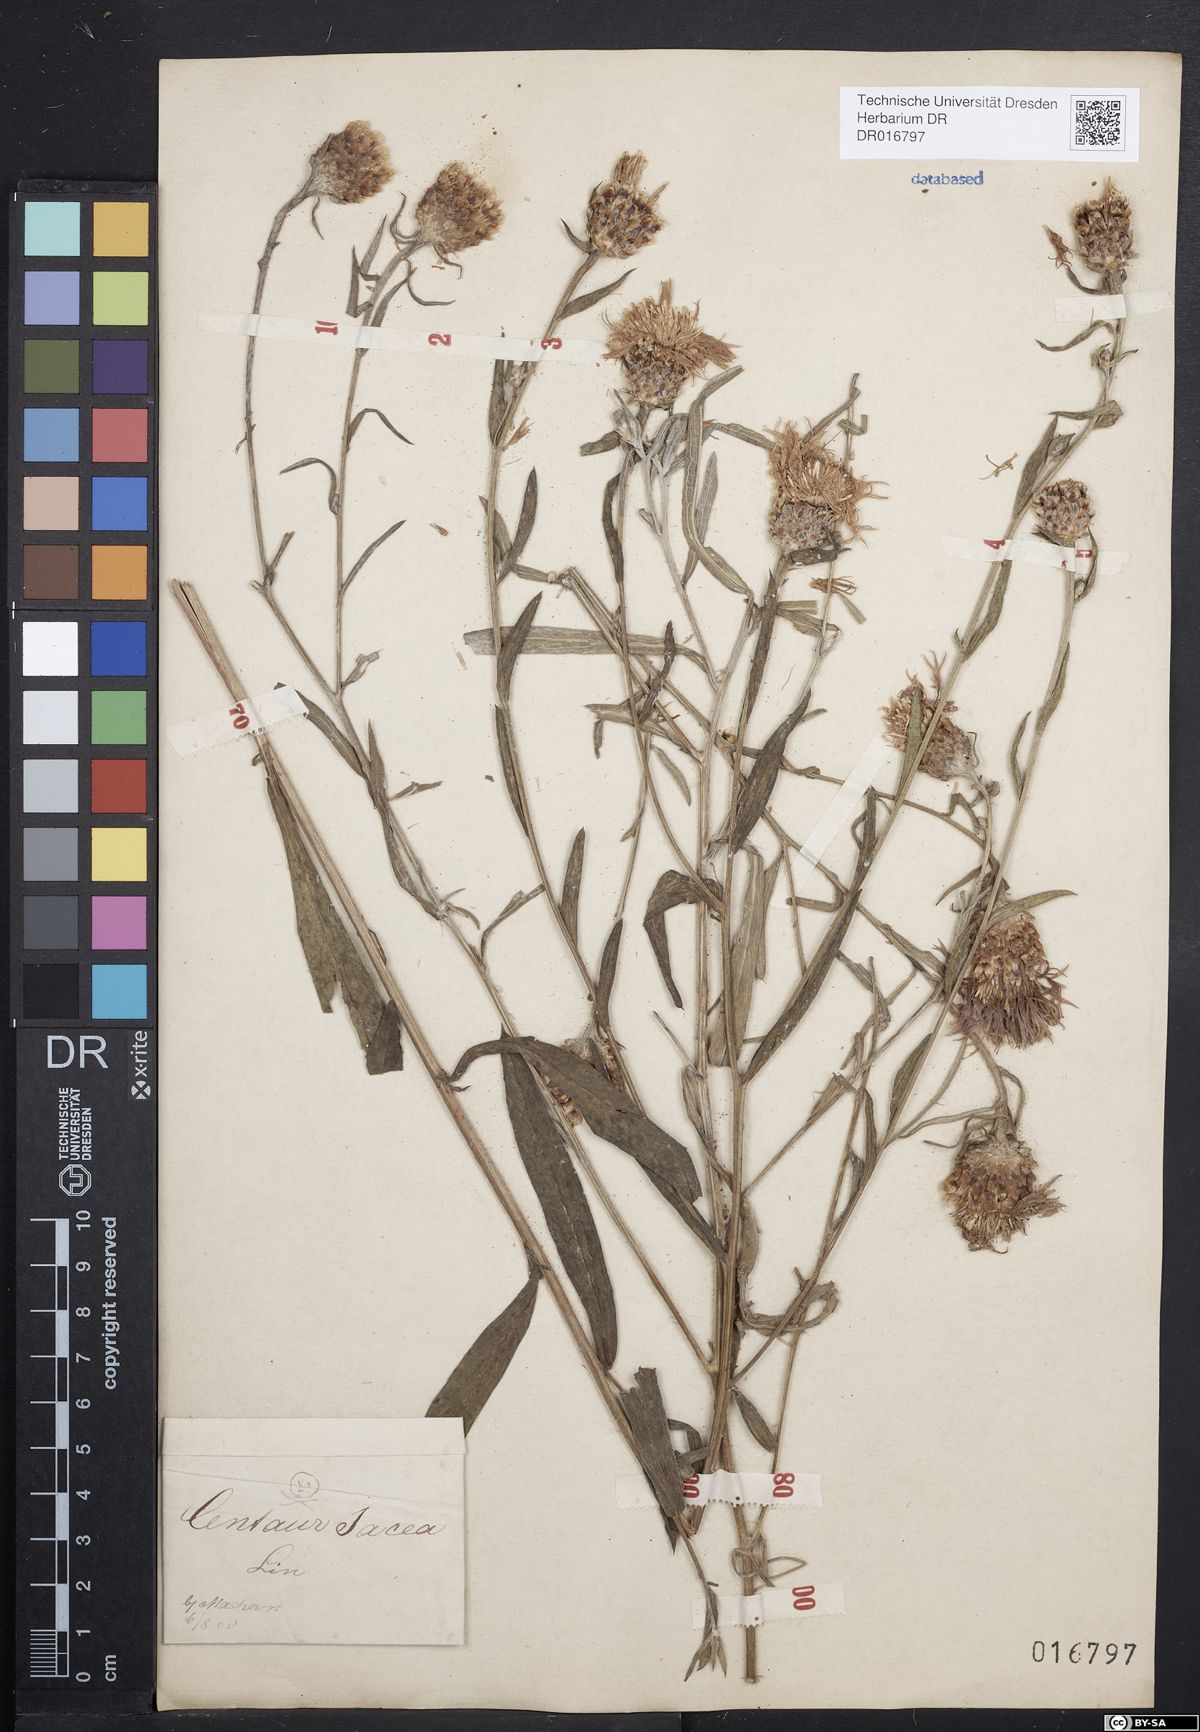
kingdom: Plantae
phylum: Tracheophyta
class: Magnoliopsida
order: Asterales
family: Asteraceae
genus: Centaurea
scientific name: Centaurea jacea
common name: Brown knapweed
